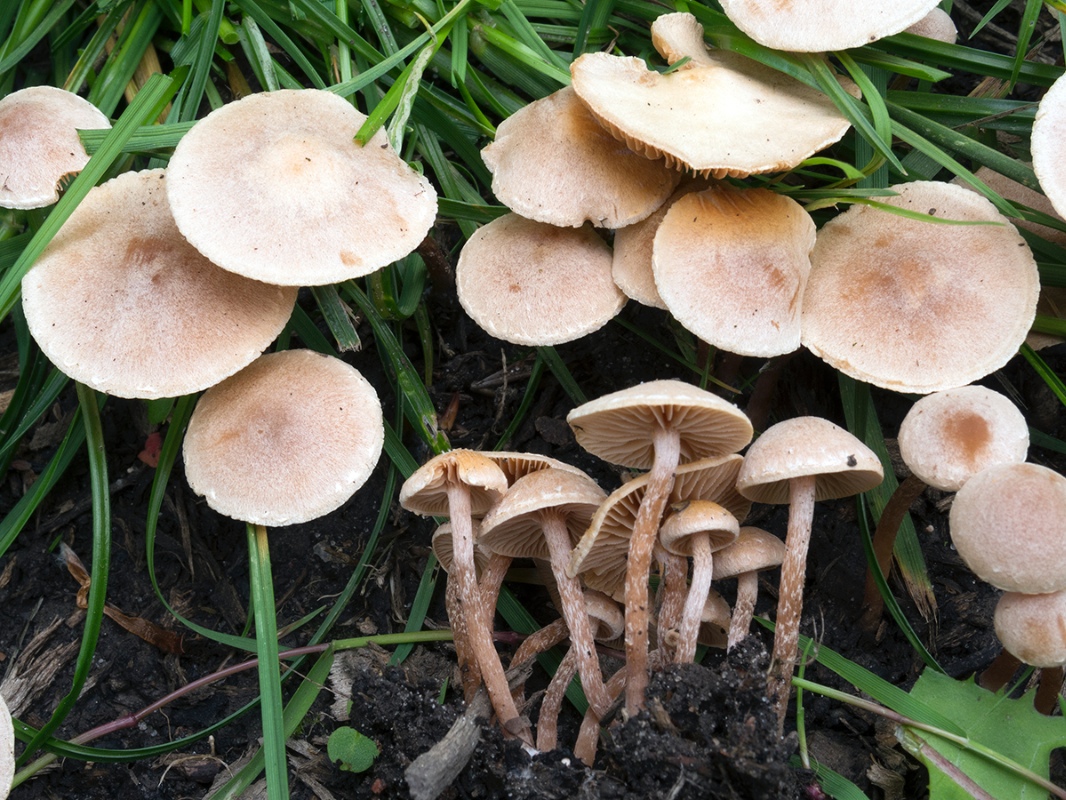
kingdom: Fungi
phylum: Basidiomycota
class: Agaricomycetes
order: Agaricales
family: Tubariaceae
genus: Tubaria
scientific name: Tubaria conspersa
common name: bleg fnughat
